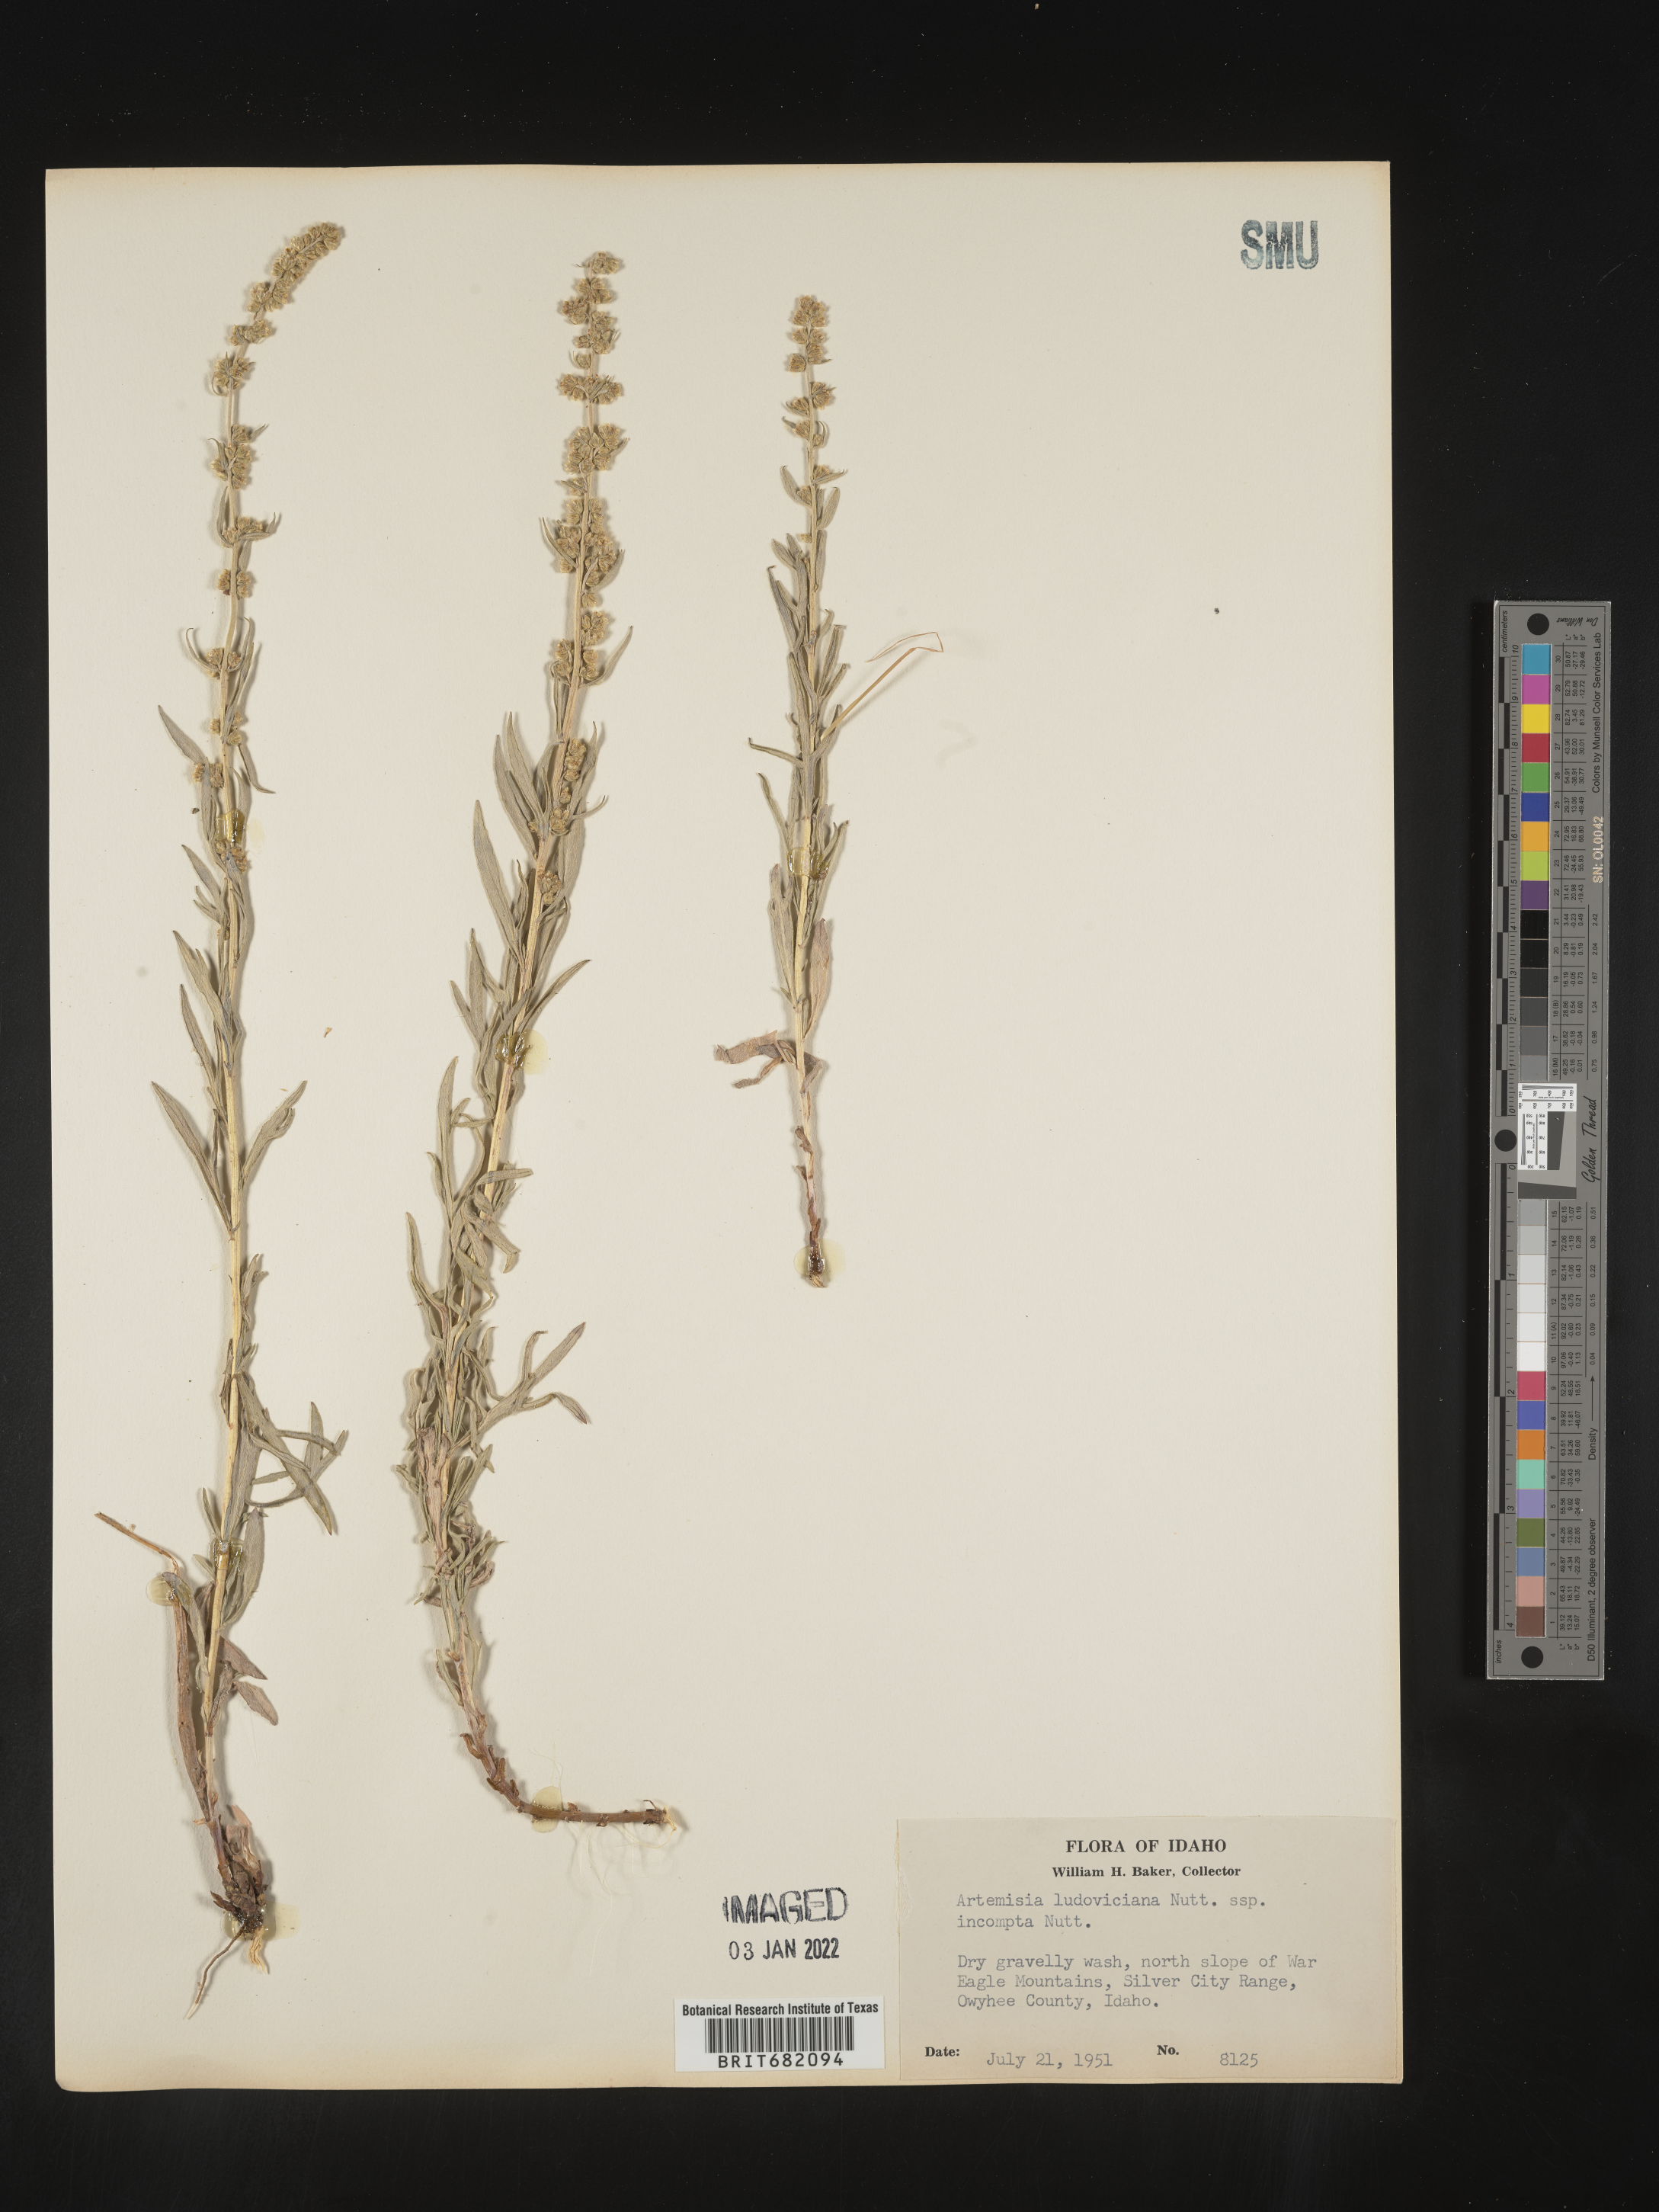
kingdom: Plantae
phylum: Tracheophyta
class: Magnoliopsida
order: Asterales
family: Asteraceae
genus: Artemisia
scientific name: Artemisia ludoviciana
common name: Western mugwort
